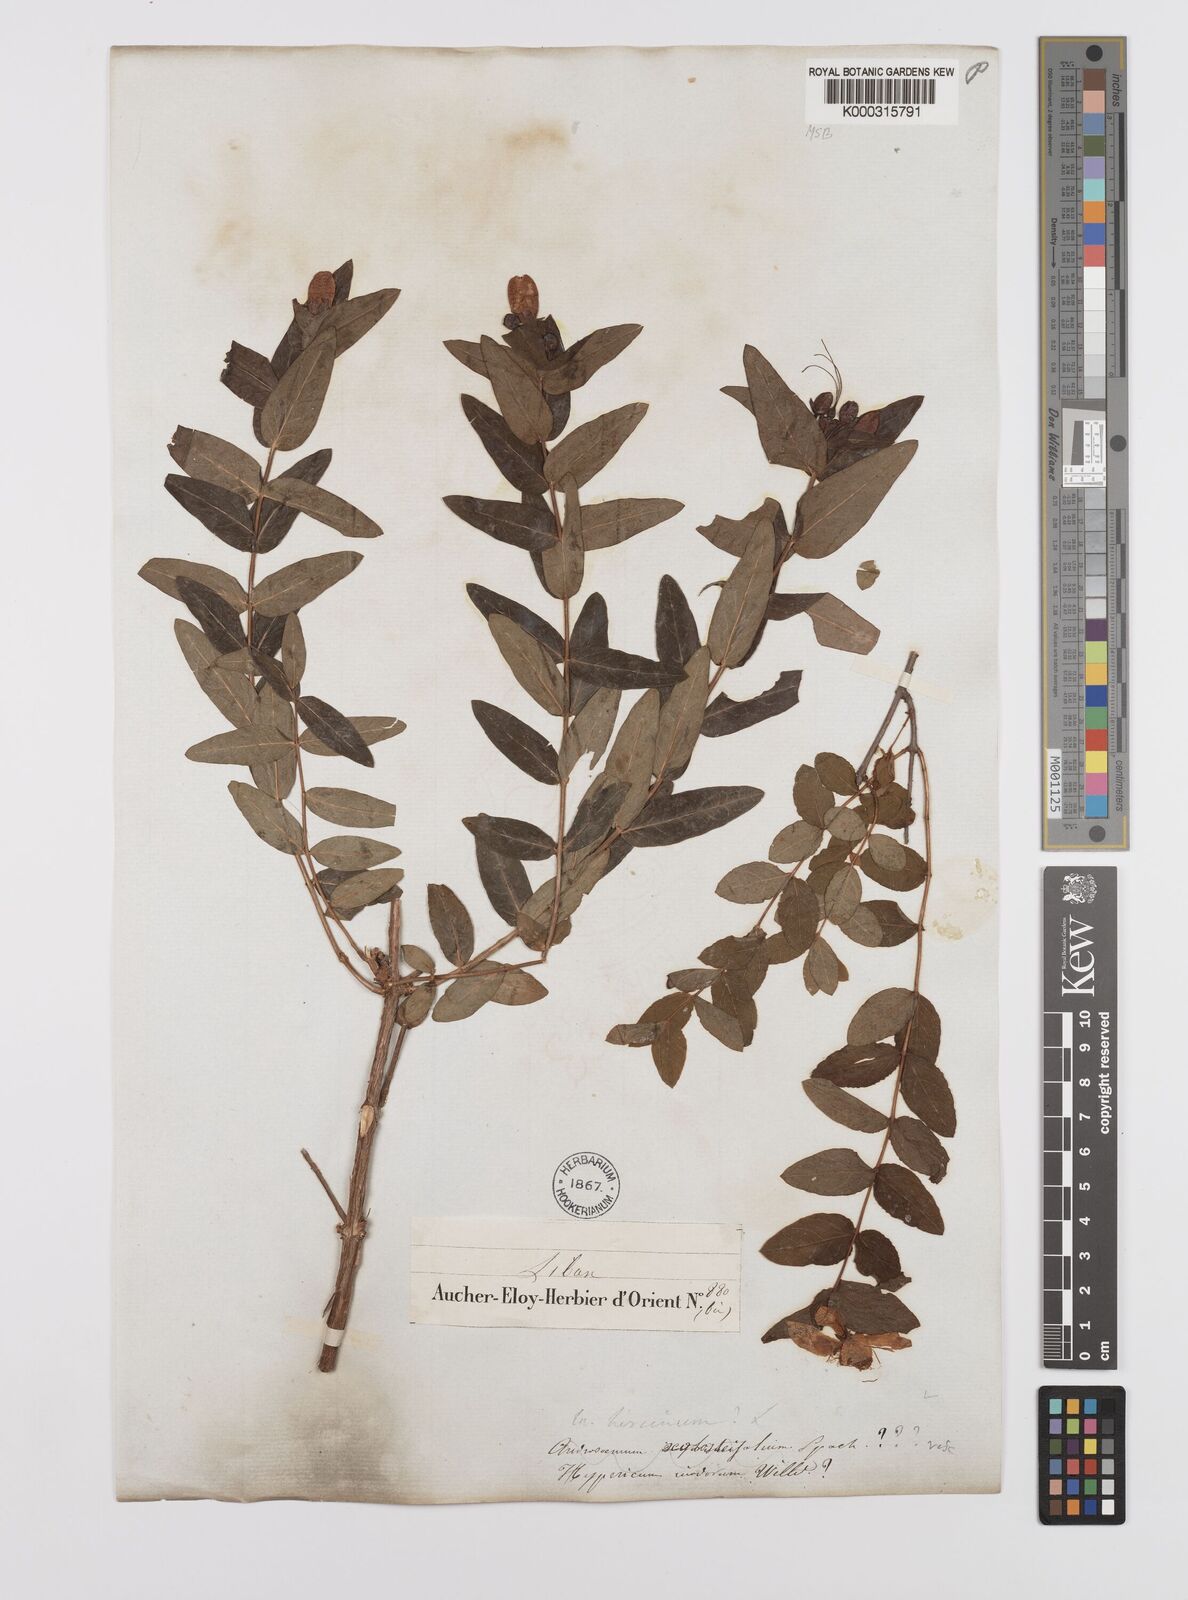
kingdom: Plantae
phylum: Tracheophyta
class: Magnoliopsida
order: Malpighiales
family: Hypericaceae
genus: Hypericum
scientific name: Hypericum hircinum
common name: Stinking tutsan
